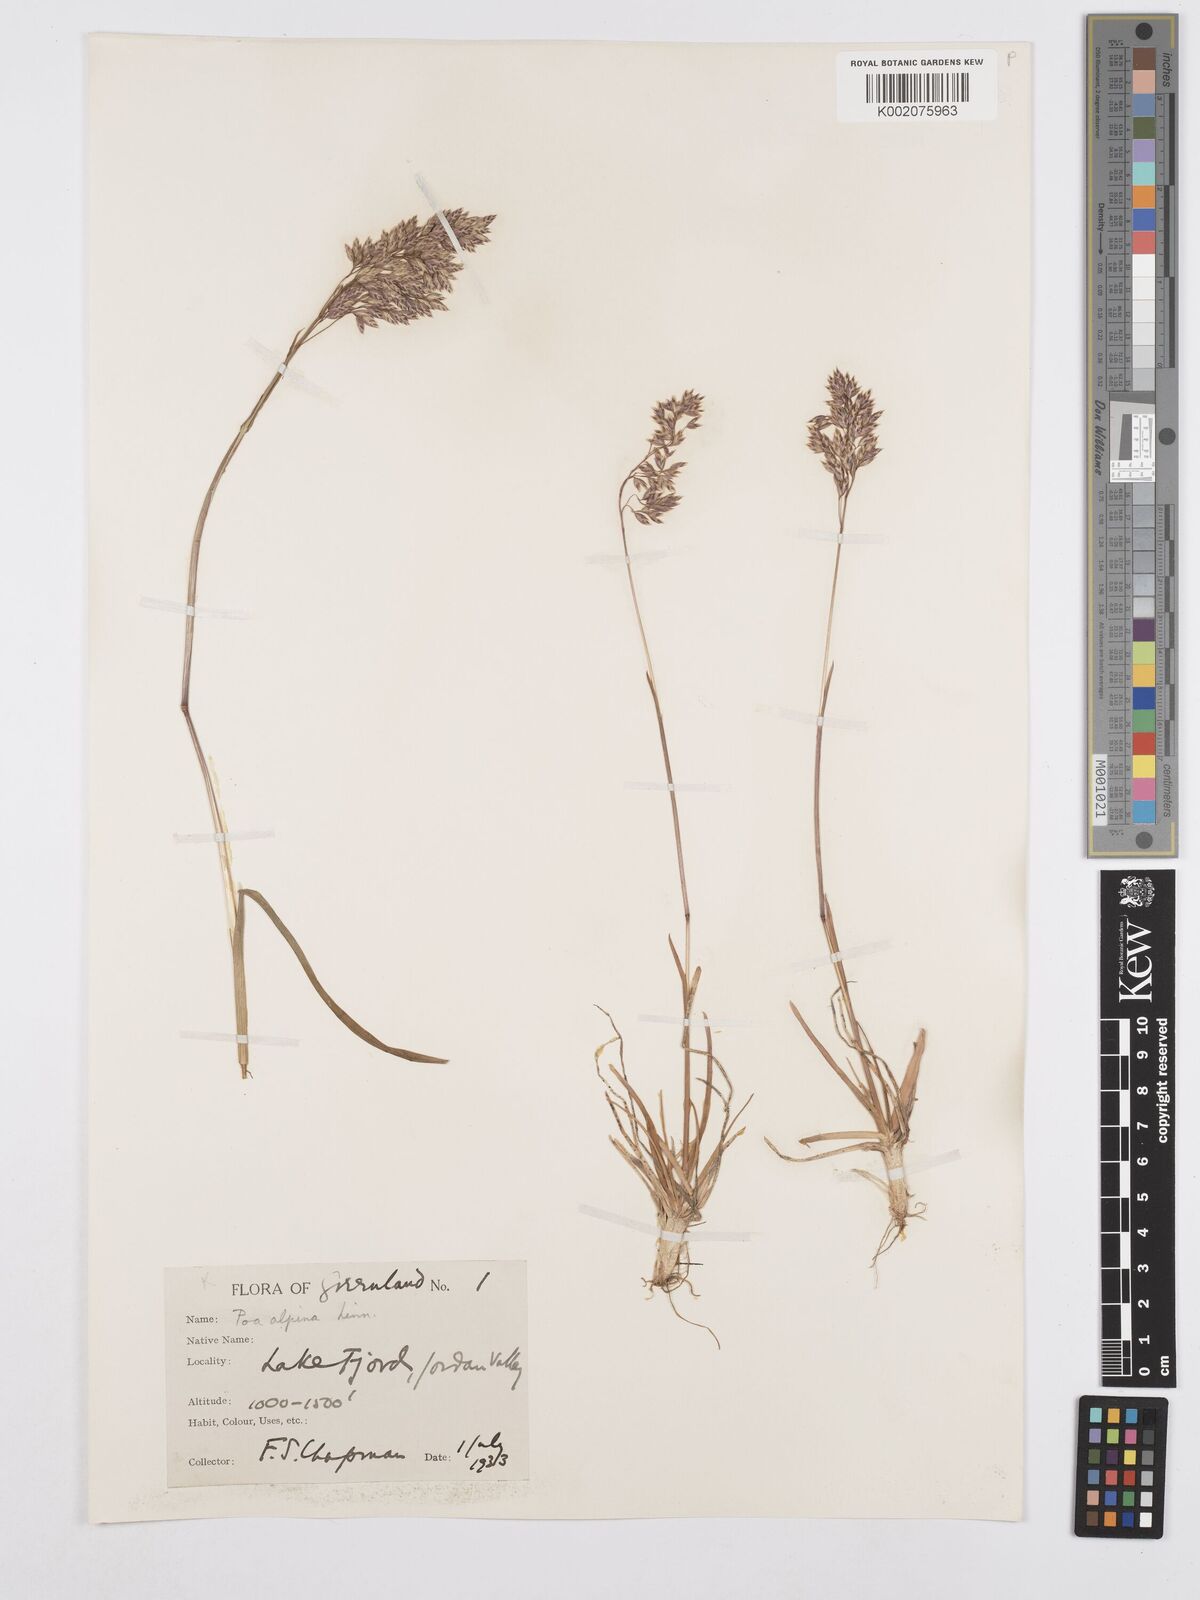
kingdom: Plantae
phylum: Tracheophyta
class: Liliopsida
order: Poales
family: Poaceae
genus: Poa
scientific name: Poa alpina
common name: Alpine bluegrass
